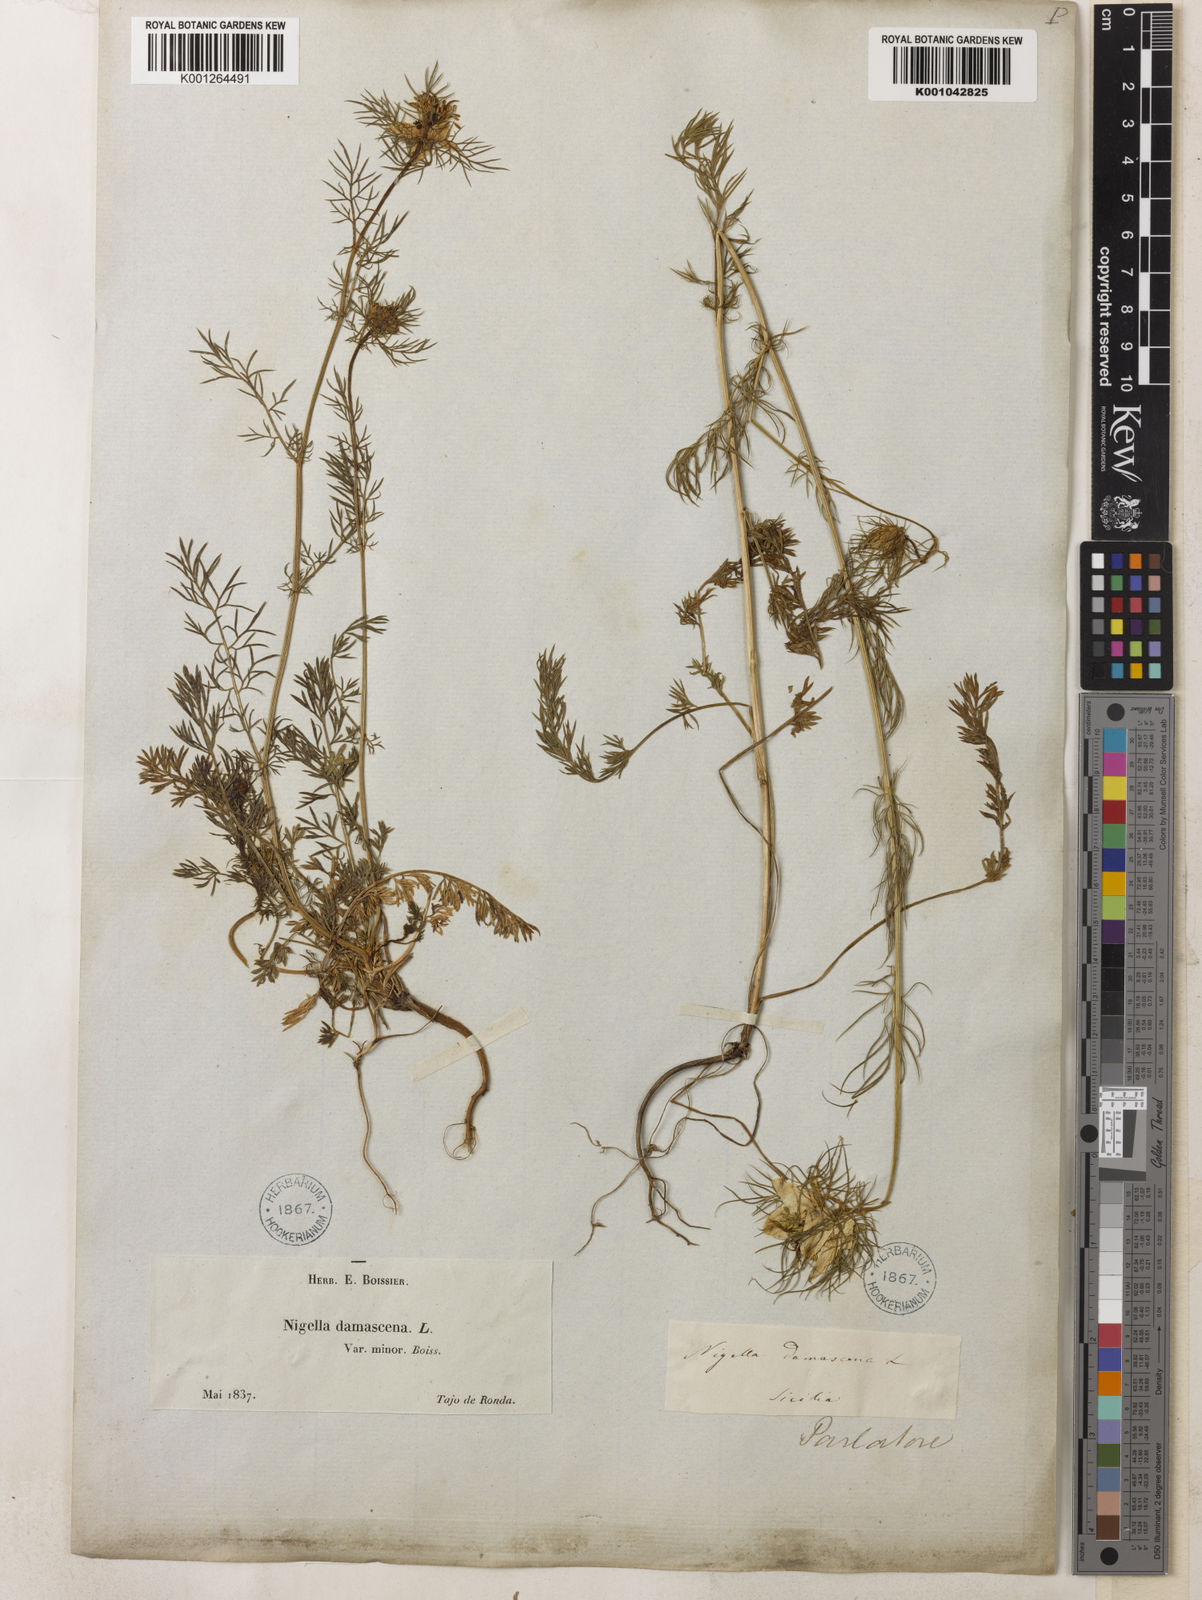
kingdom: Plantae
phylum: Tracheophyta
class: Magnoliopsida
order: Ranunculales
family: Ranunculaceae
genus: Nigella
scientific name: Nigella damascena
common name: Love-in-a-mist
